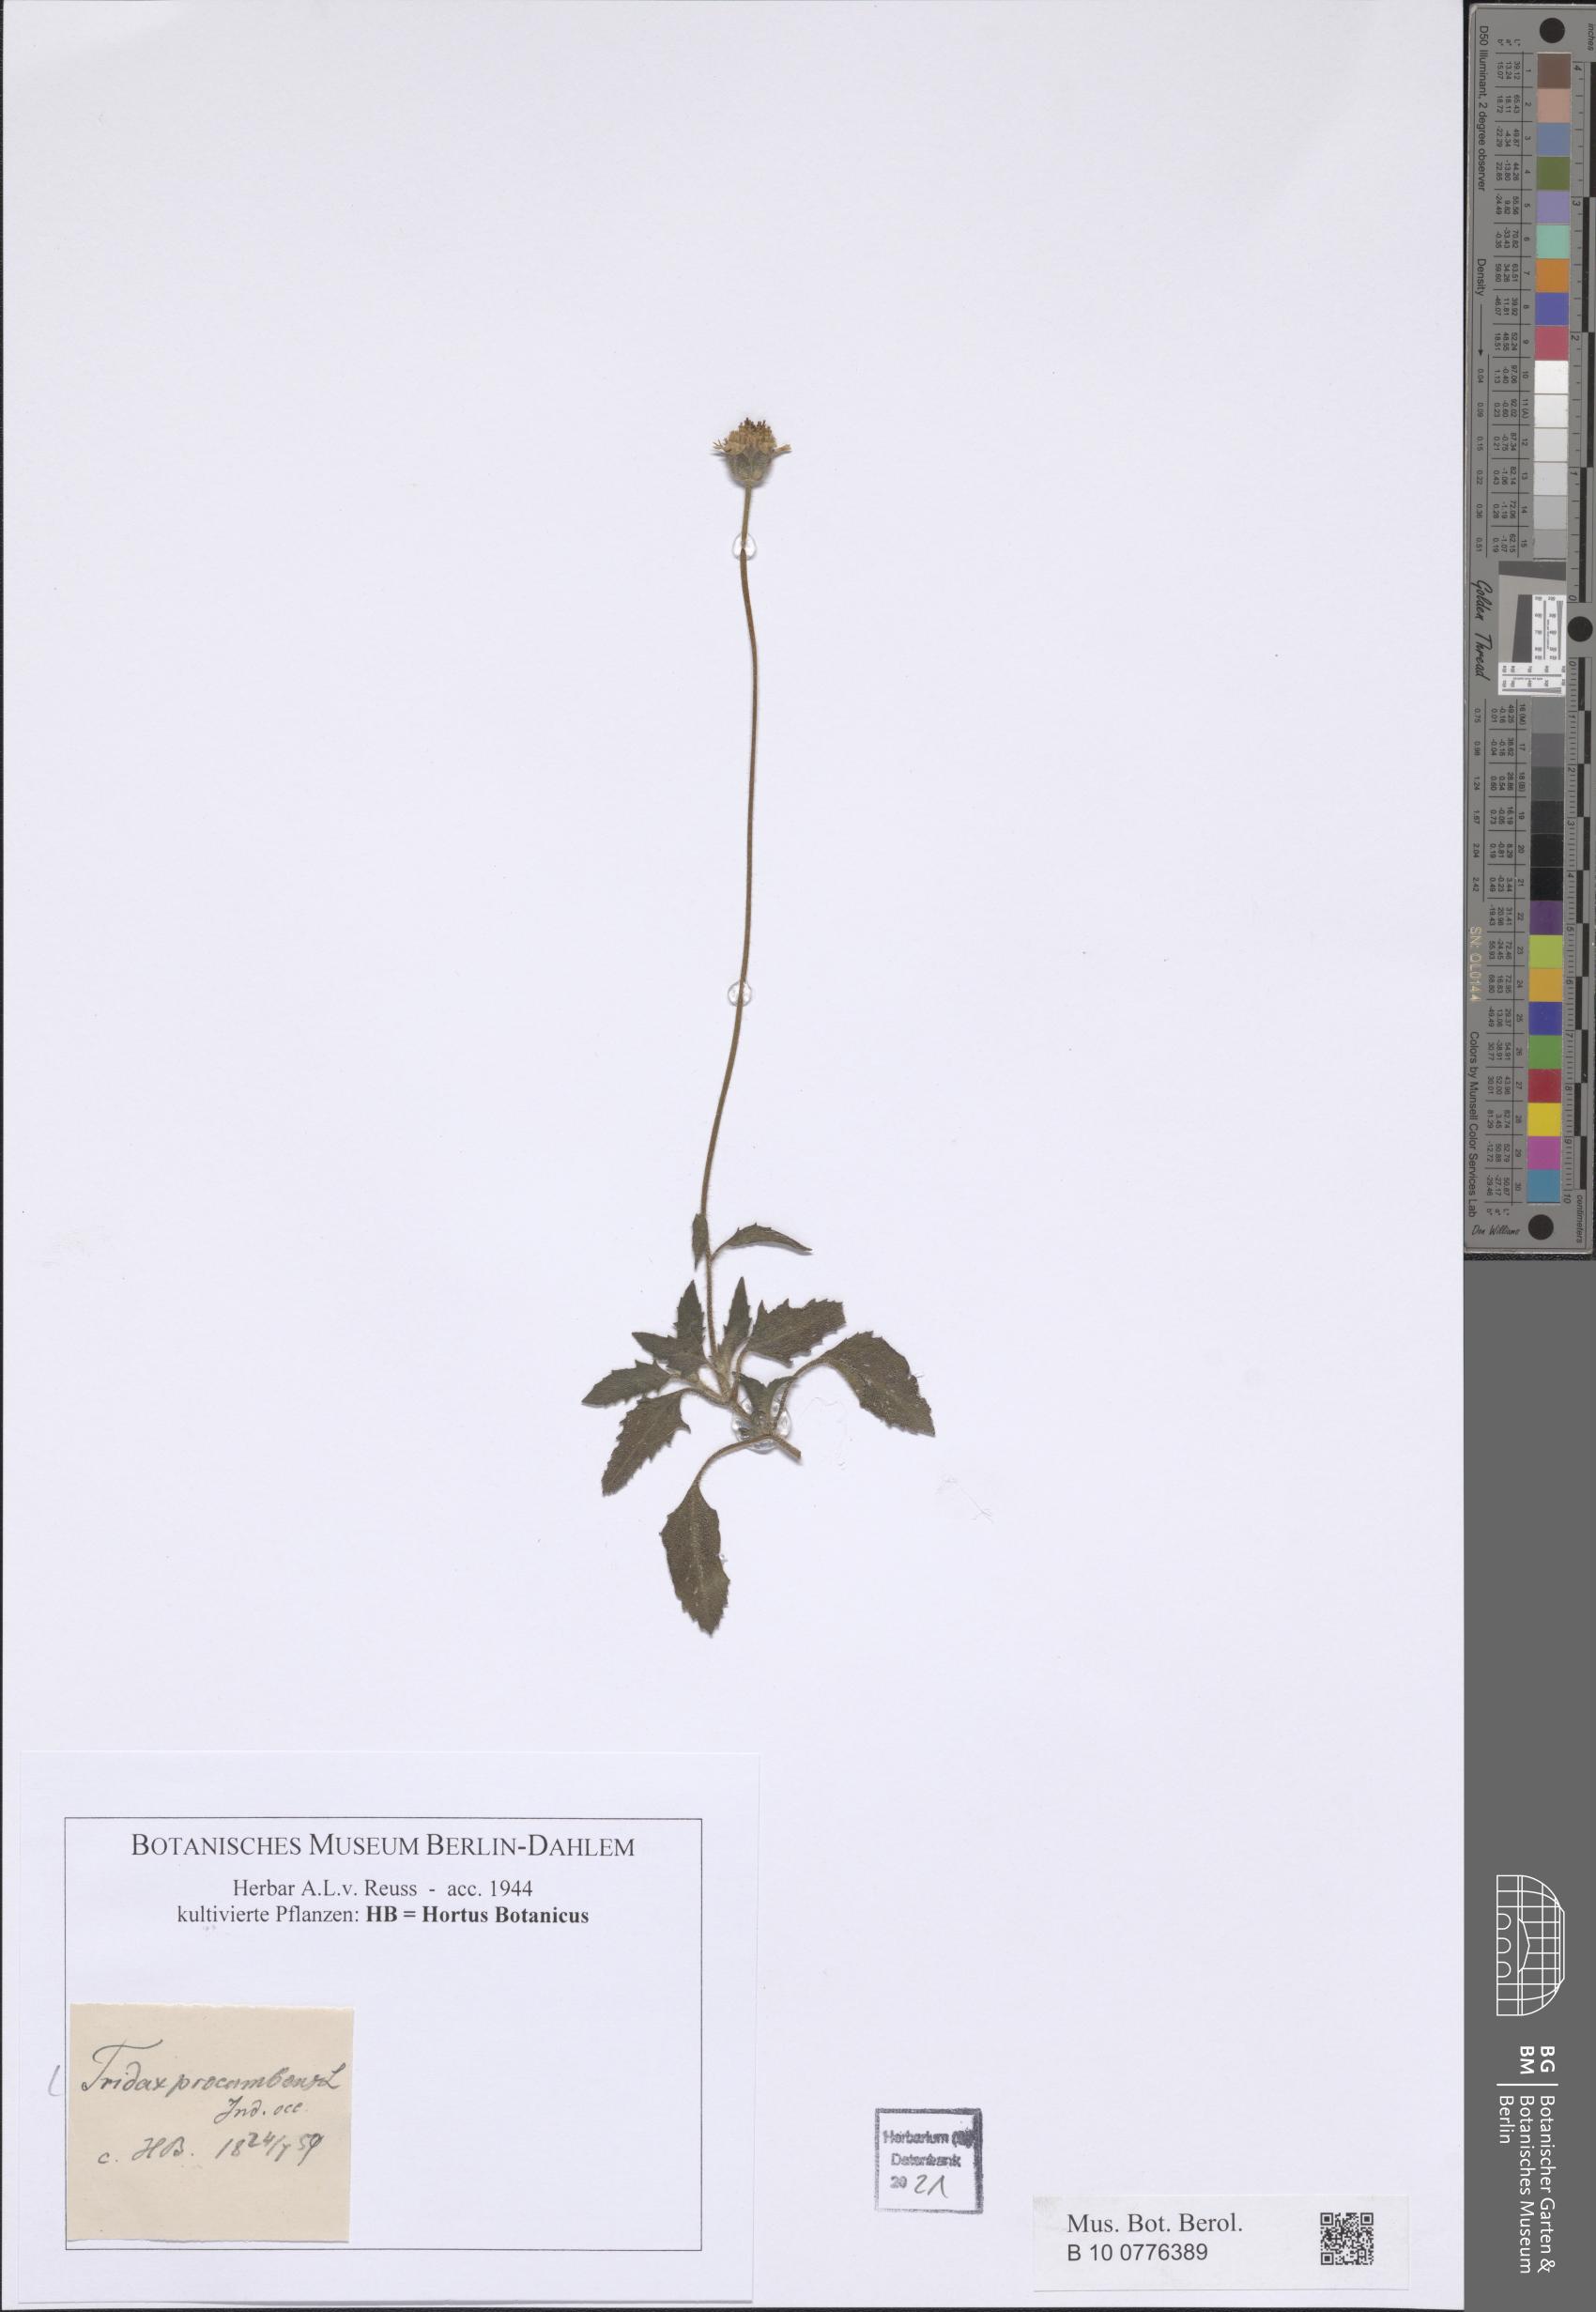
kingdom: Plantae
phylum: Tracheophyta
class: Magnoliopsida
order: Asterales
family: Asteraceae
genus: Tridax
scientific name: Tridax procumbens
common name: Coatbuttons
